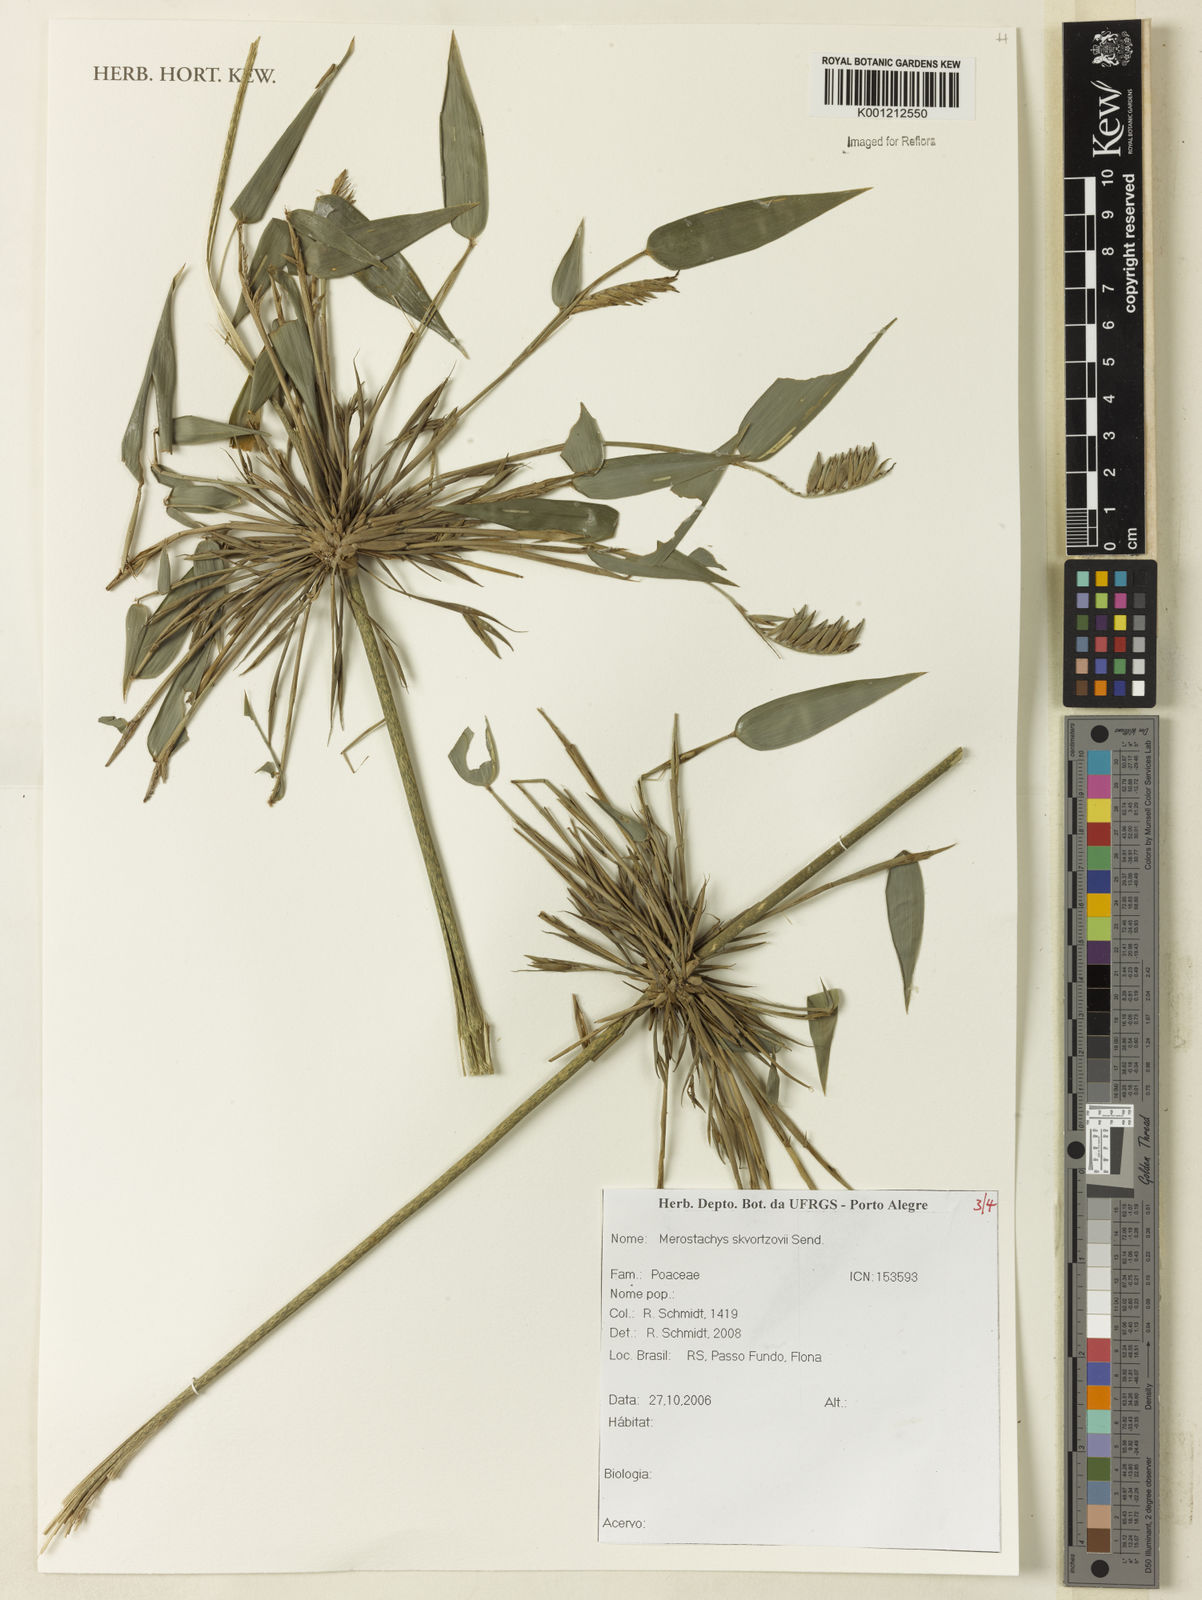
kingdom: Plantae
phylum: Tracheophyta
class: Liliopsida
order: Poales
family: Poaceae
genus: Merostachys
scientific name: Merostachys skvortzovii
